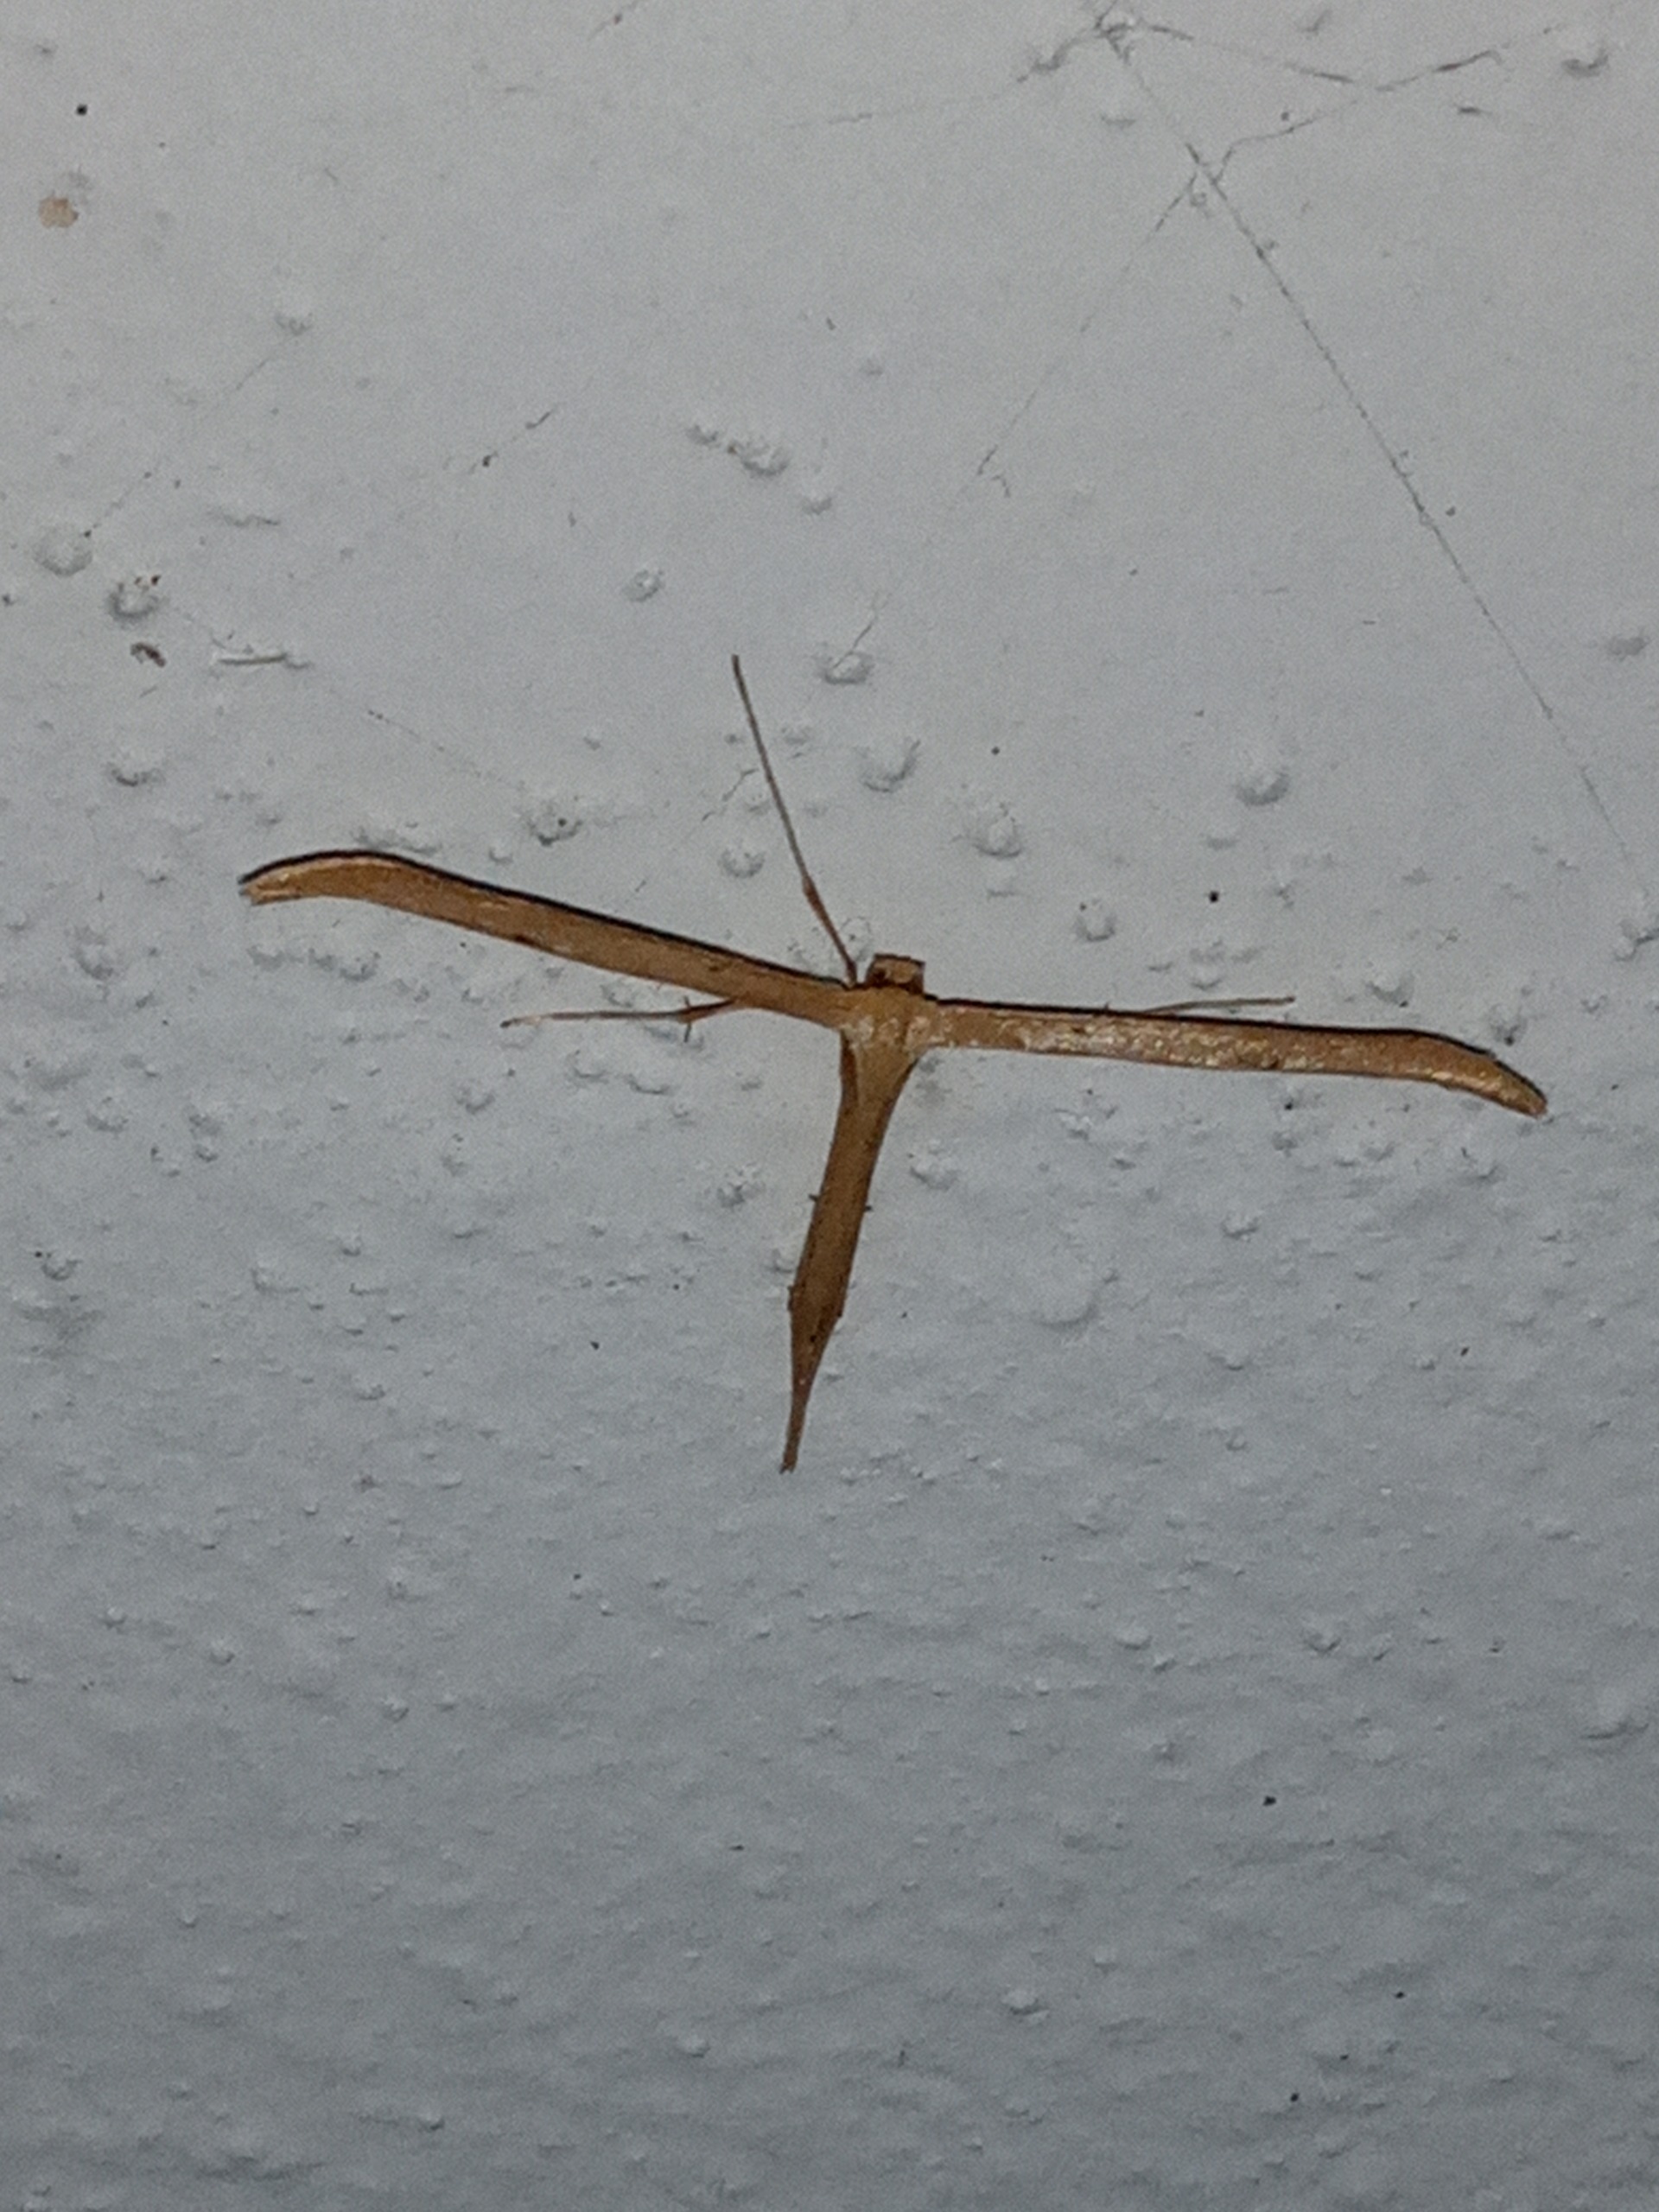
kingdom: Animalia
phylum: Arthropoda
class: Insecta
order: Lepidoptera
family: Pterophoridae
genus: Emmelina
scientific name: Emmelina monodactyla
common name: Snerlefjermøl
